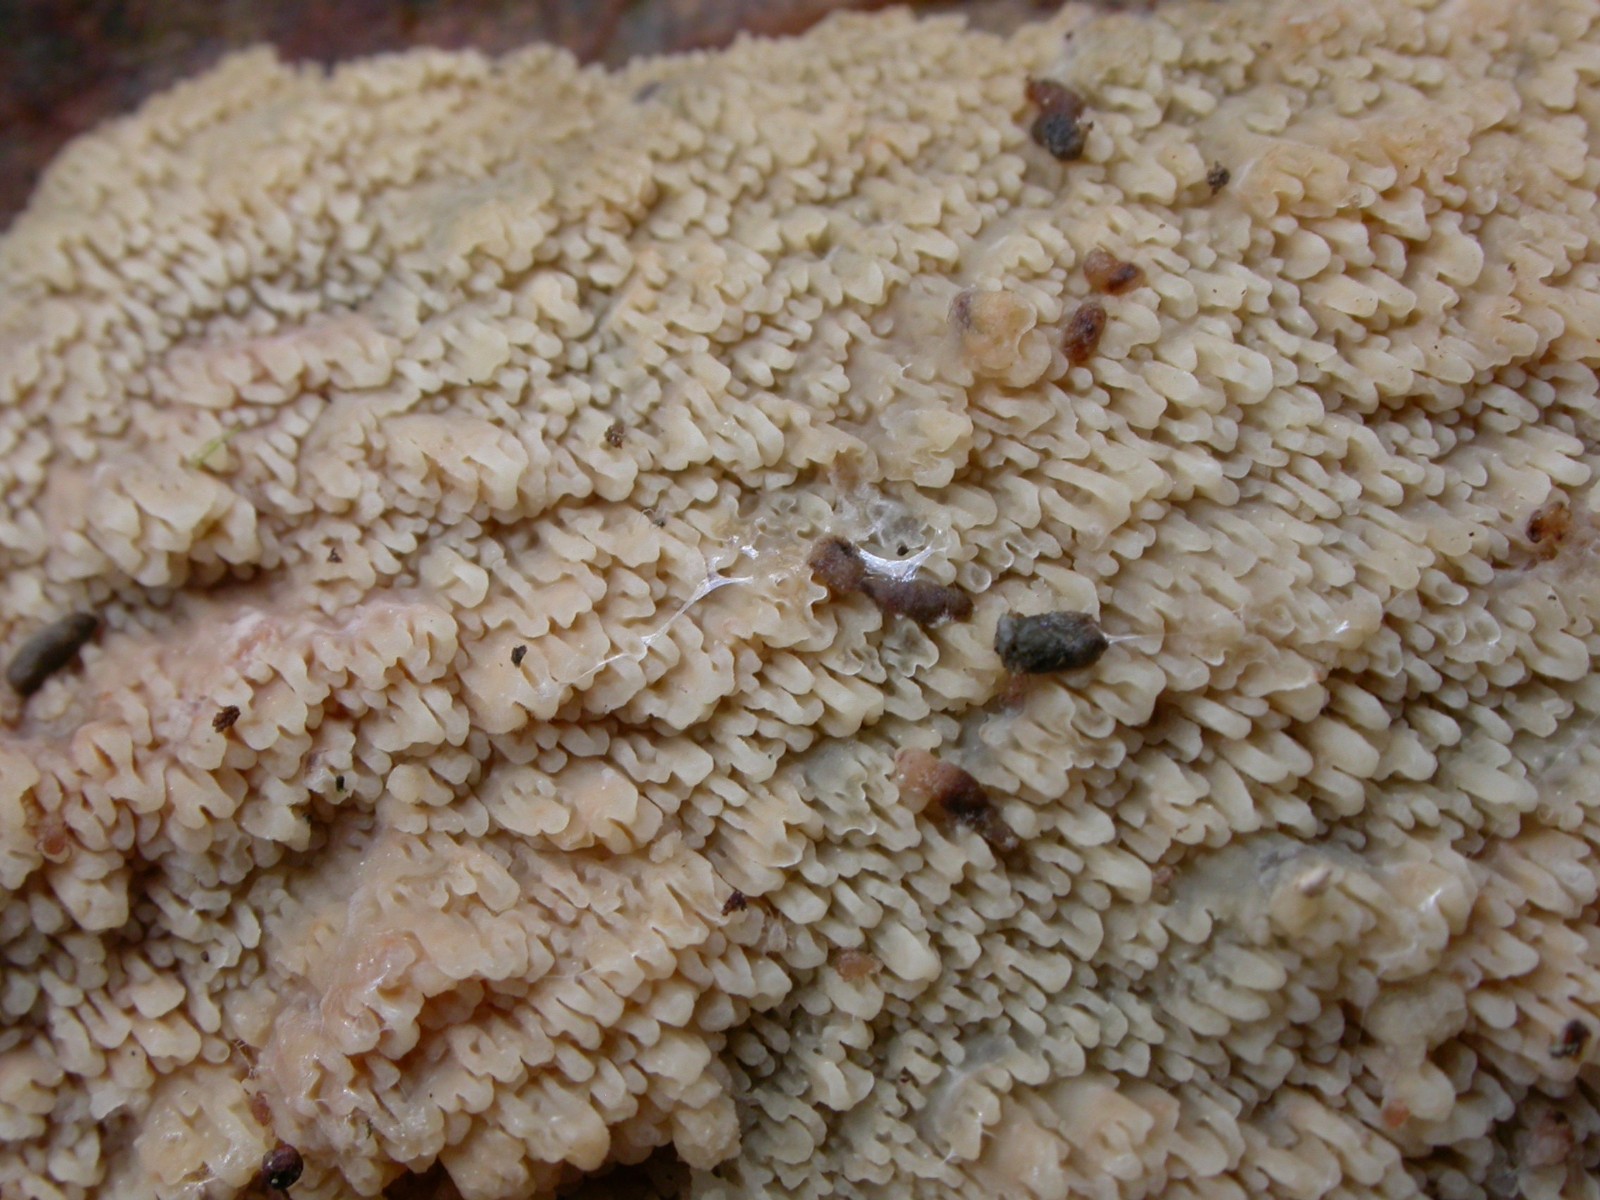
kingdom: Fungi
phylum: Basidiomycota
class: Agaricomycetes
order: Polyporales
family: Irpicaceae
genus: Crystallicutis
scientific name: Crystallicutis serpens
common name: gråviolet barkhinde
